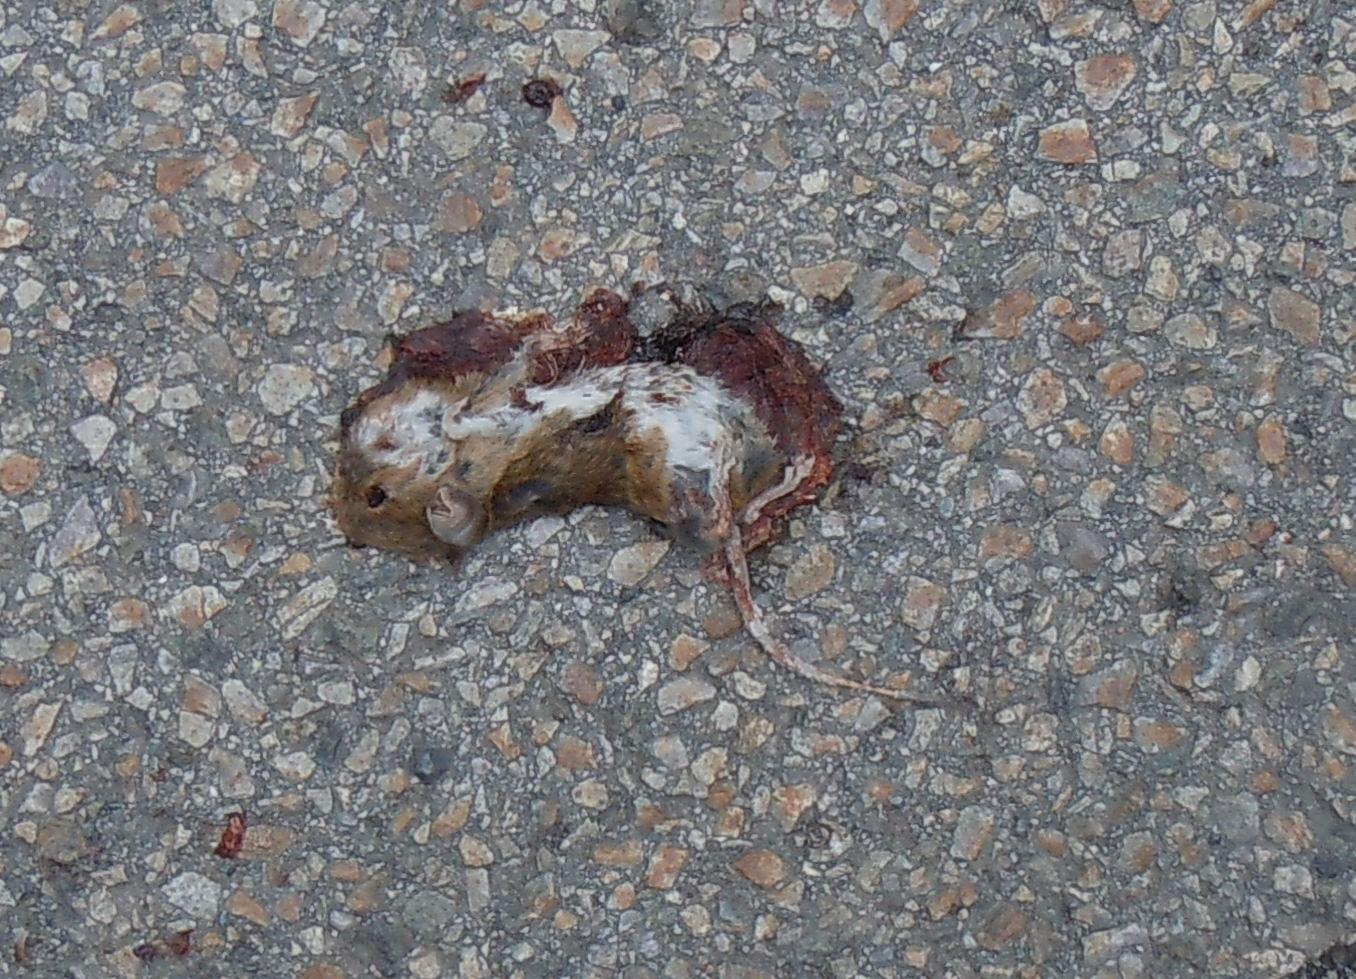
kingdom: Animalia
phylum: Chordata
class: Mammalia
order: Rodentia
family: Muridae
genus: Apodemus
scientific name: Apodemus
